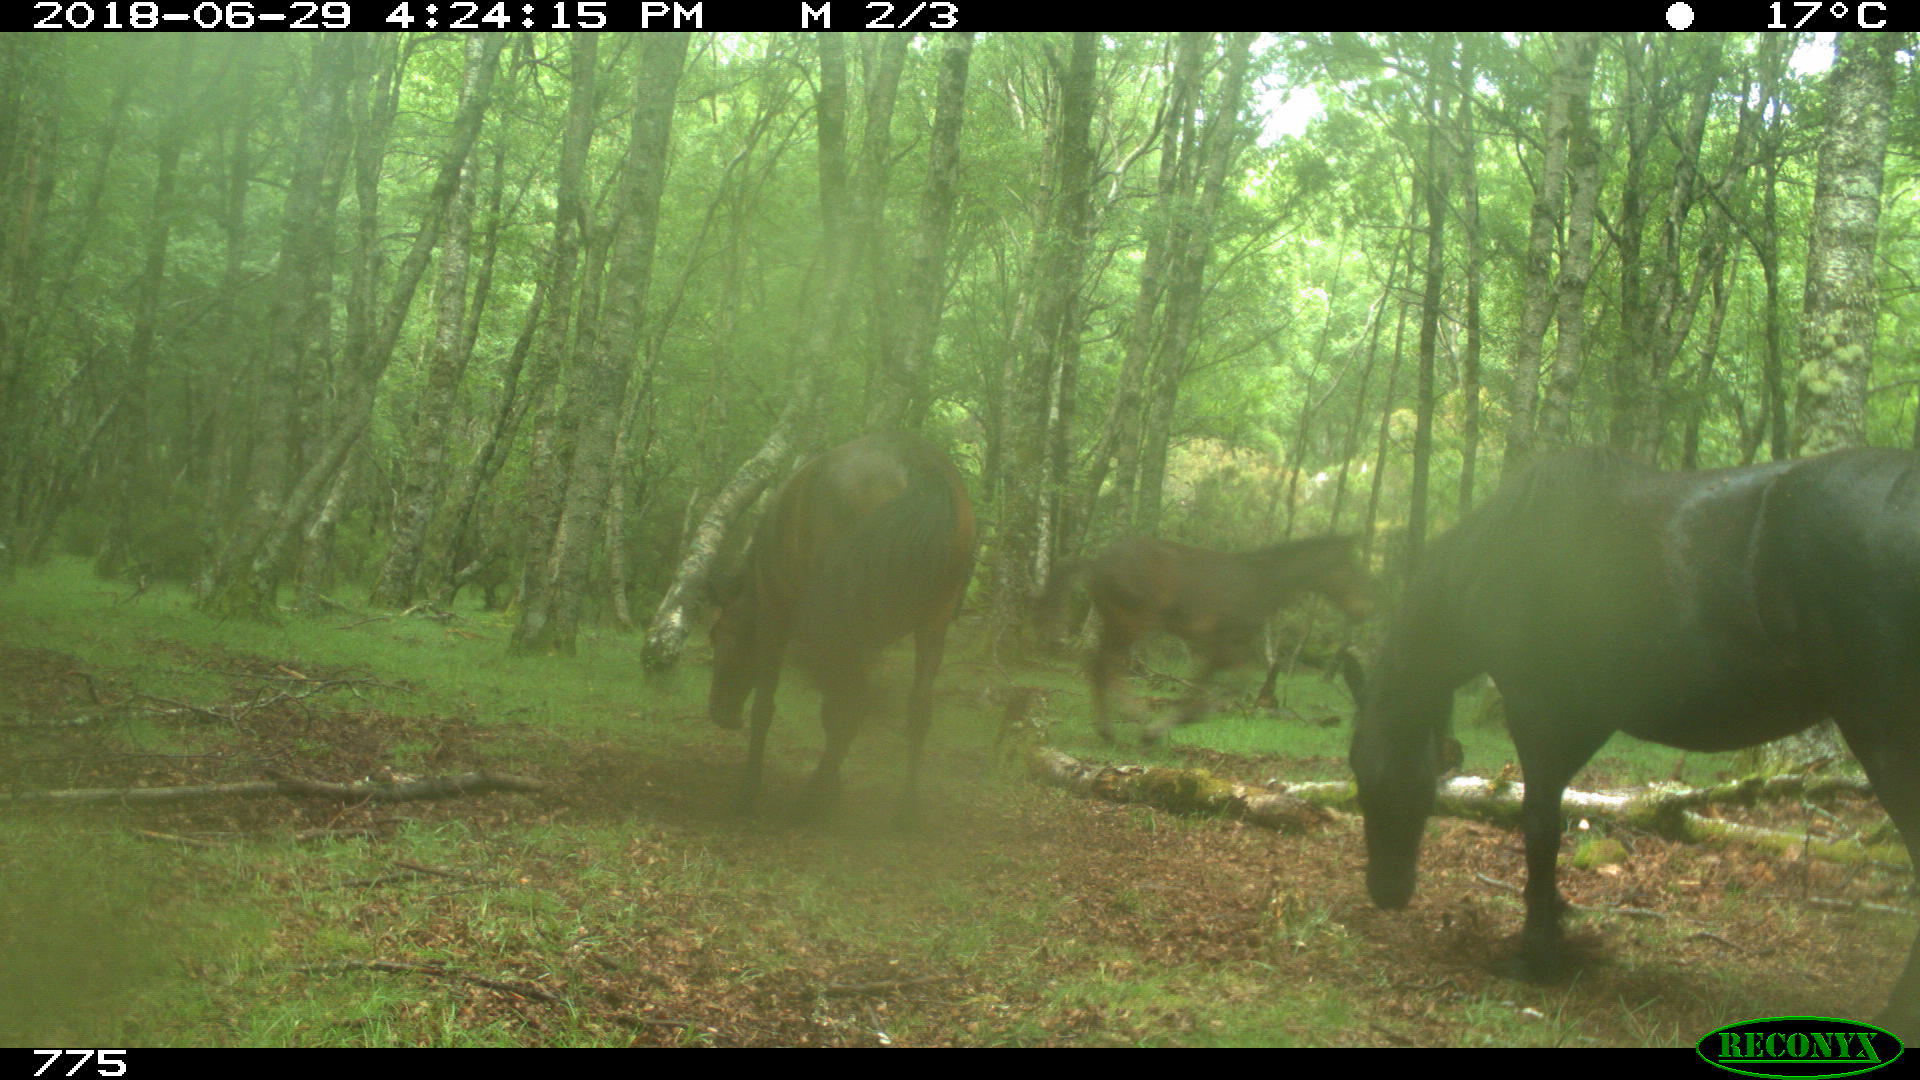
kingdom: Animalia
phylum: Chordata
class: Mammalia
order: Perissodactyla
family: Equidae
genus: Equus
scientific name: Equus caballus
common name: Horse
